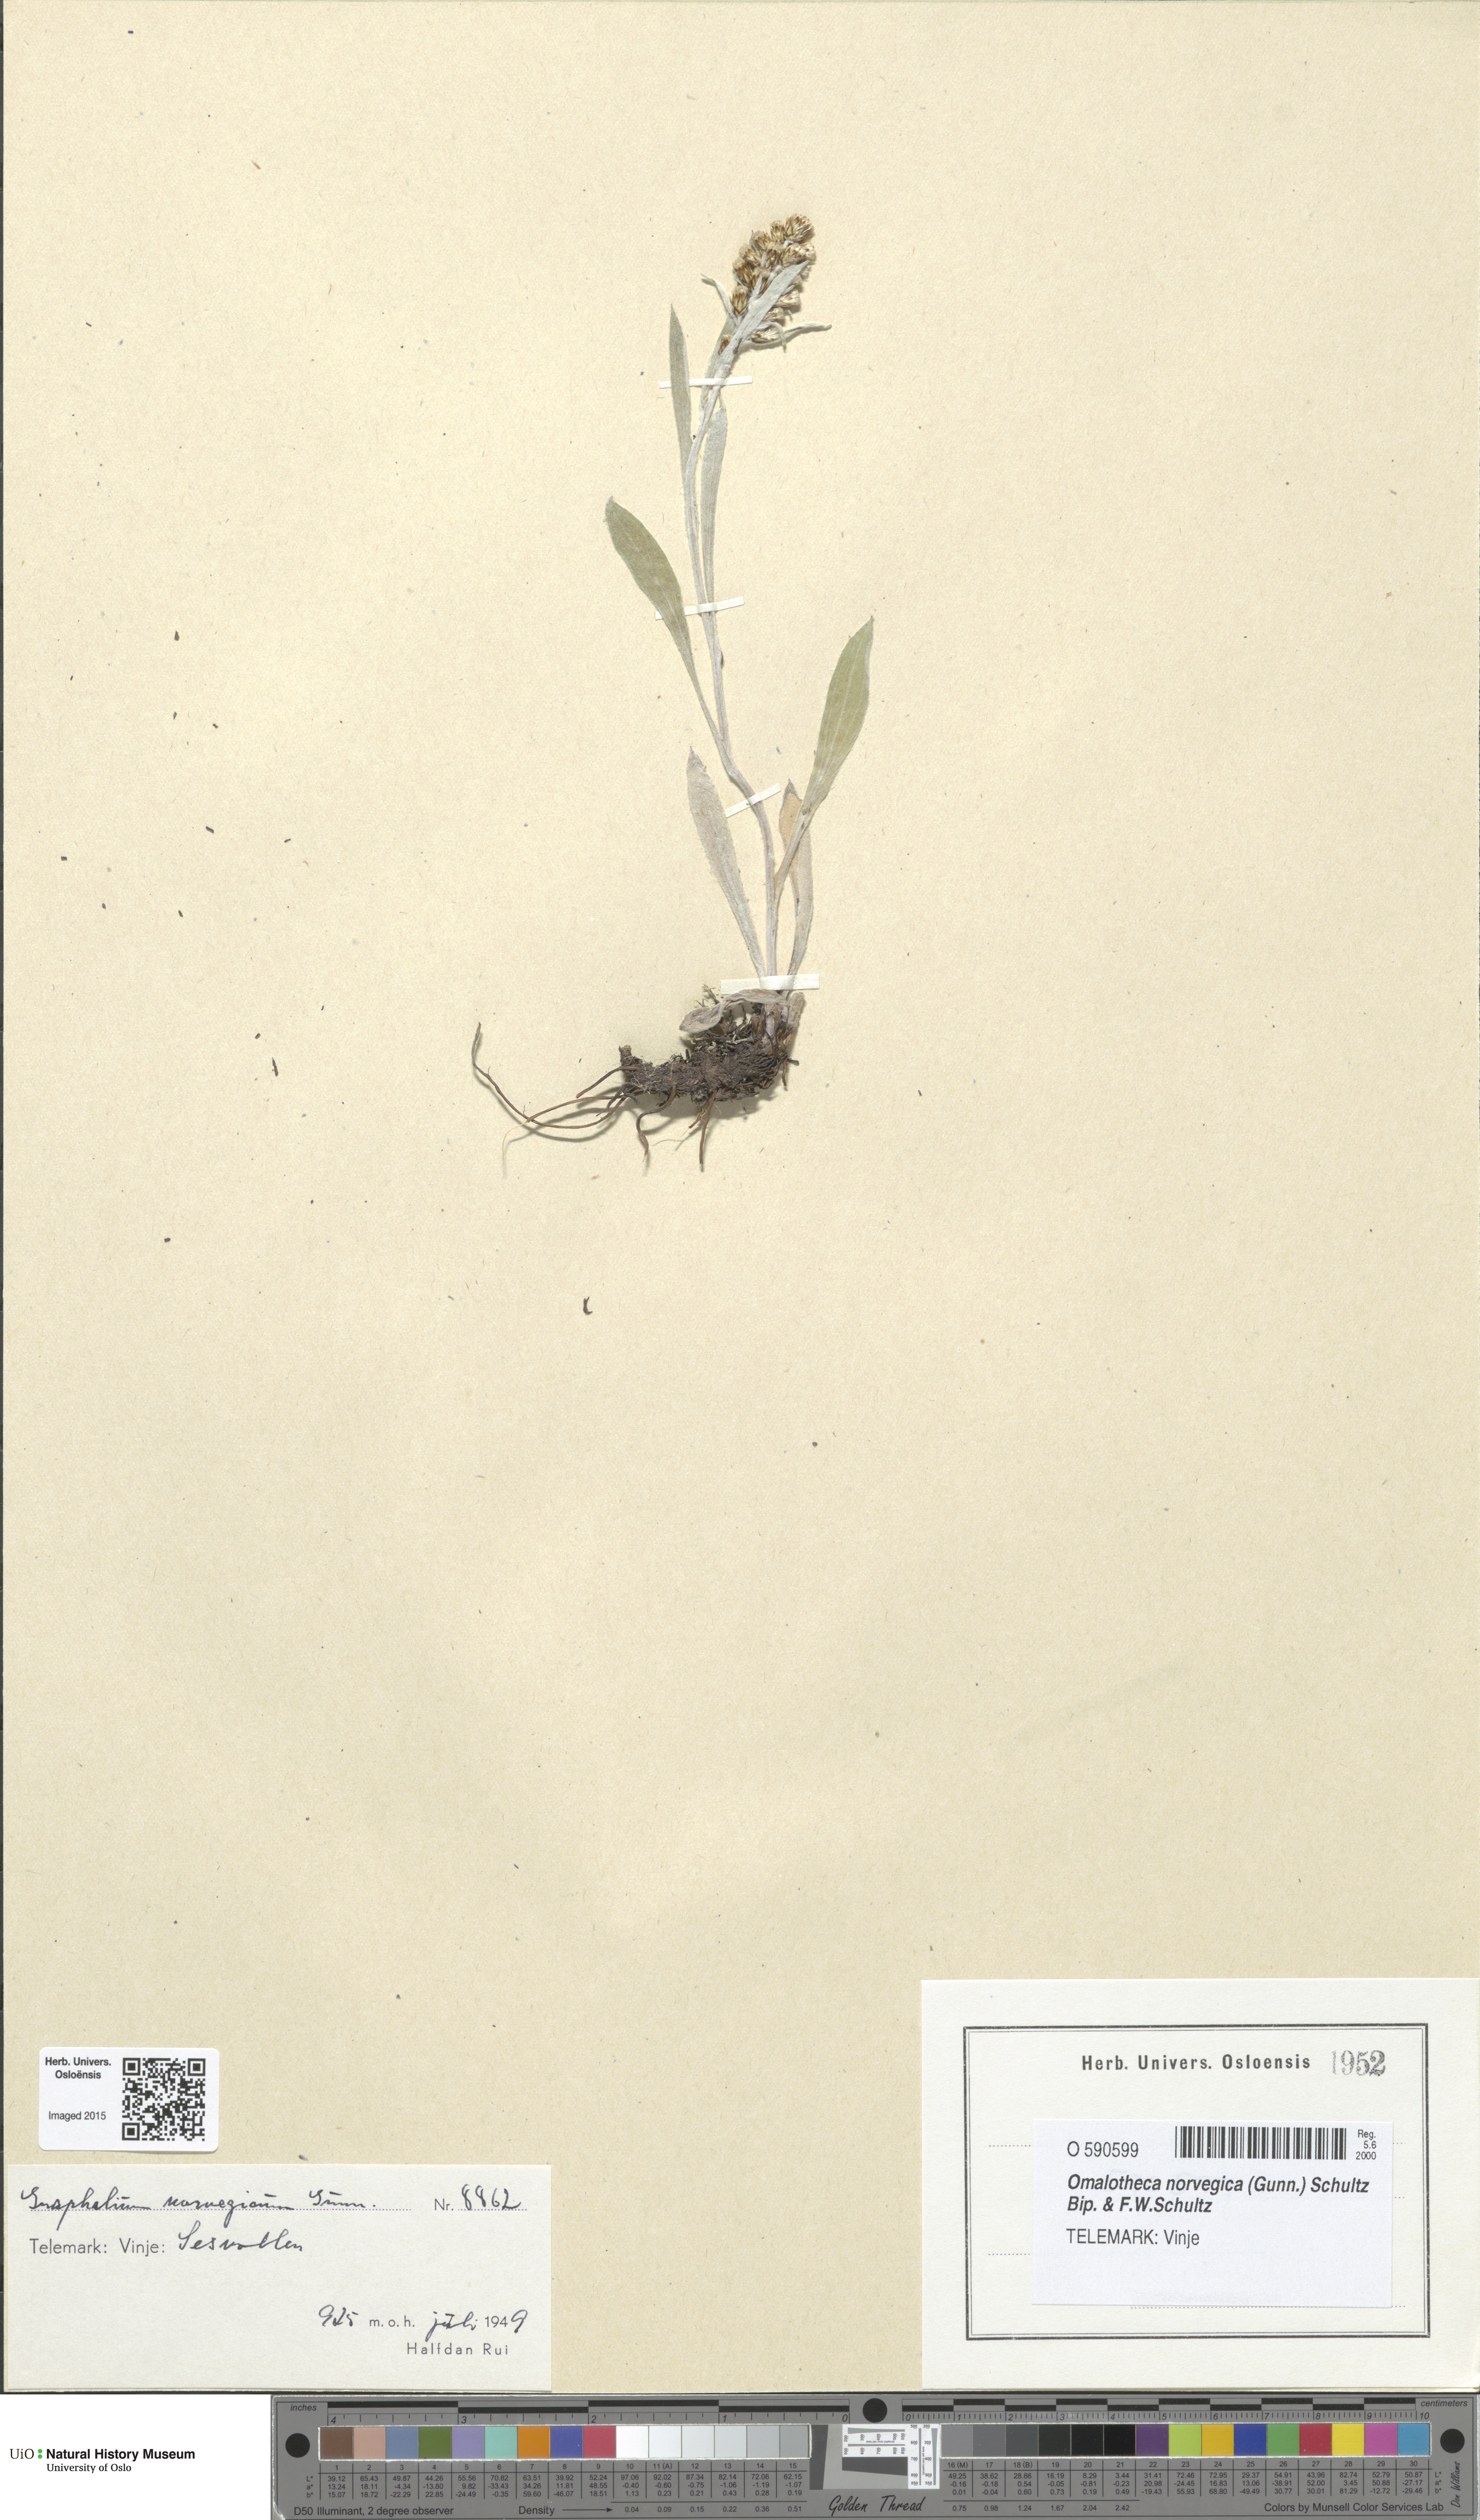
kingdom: Plantae
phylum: Tracheophyta
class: Magnoliopsida
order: Asterales
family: Asteraceae
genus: Omalotheca
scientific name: Omalotheca norvegica
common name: Norwegian arctic-cudweed
